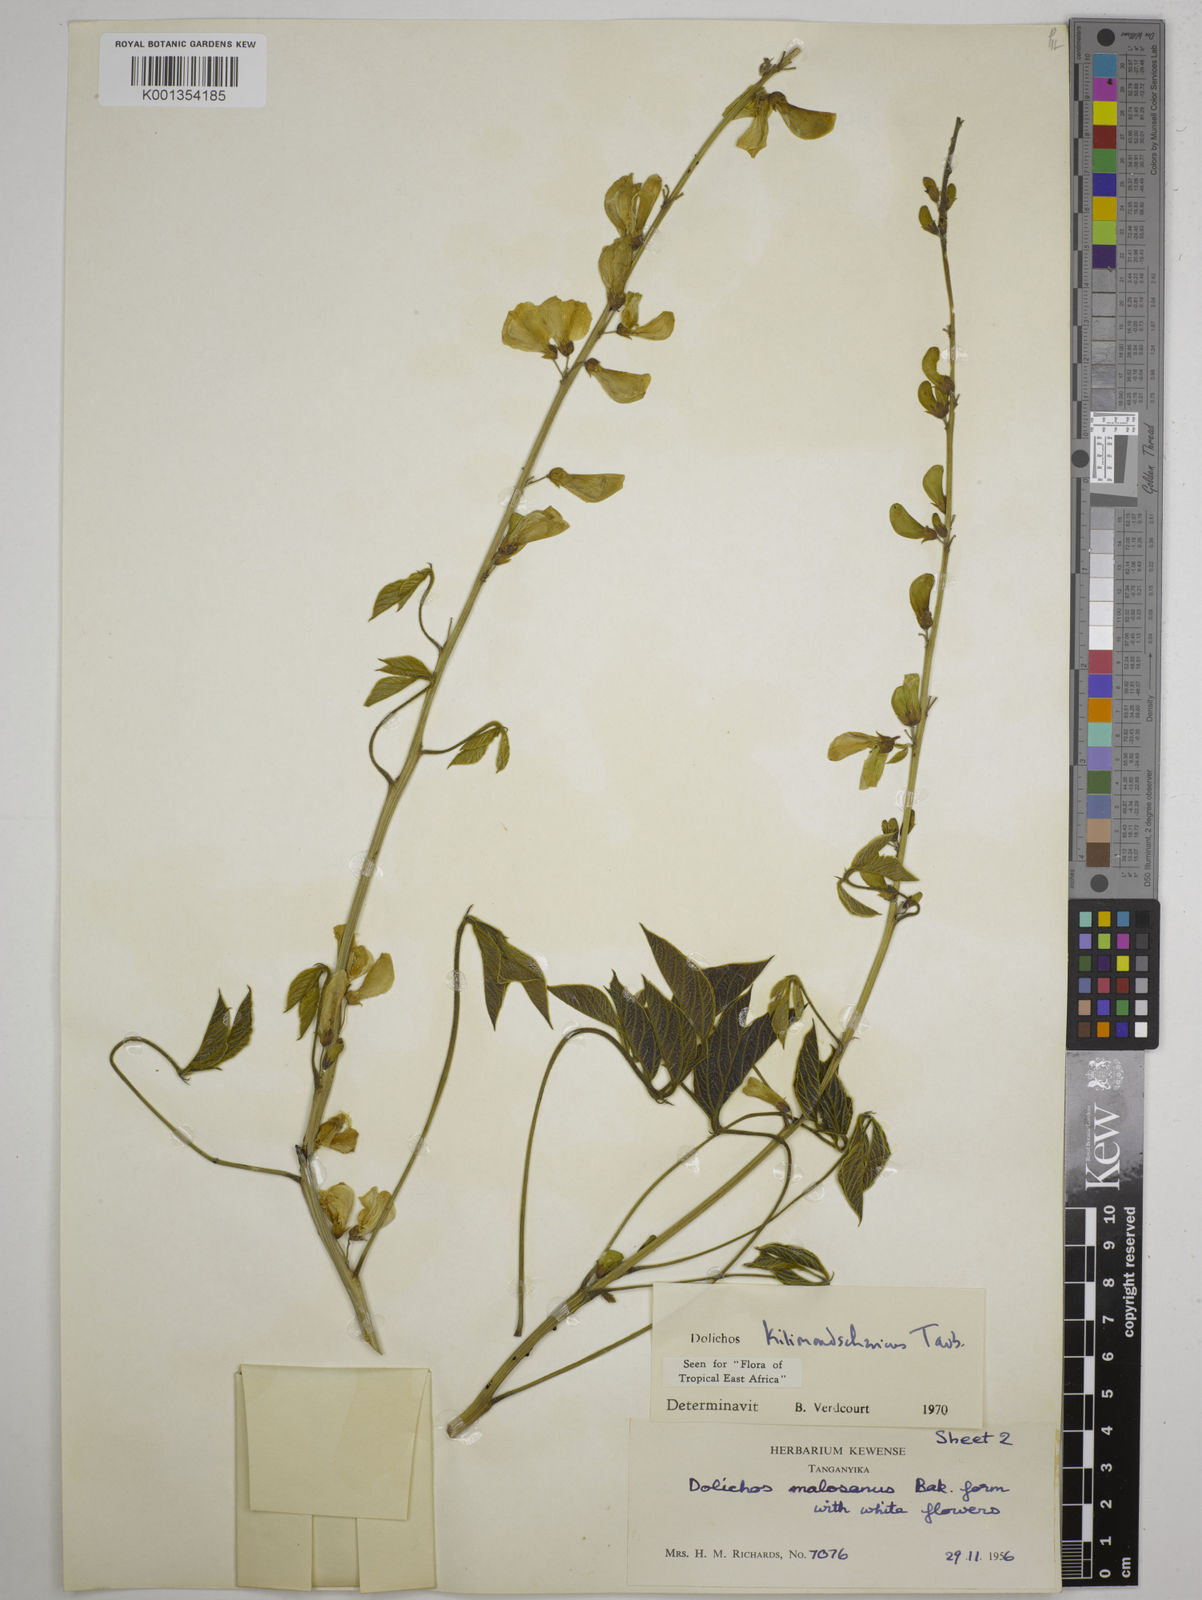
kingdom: Plantae
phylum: Tracheophyta
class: Magnoliopsida
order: Fabales
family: Fabaceae
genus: Dolichos
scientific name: Dolichos kilimandscharicus
